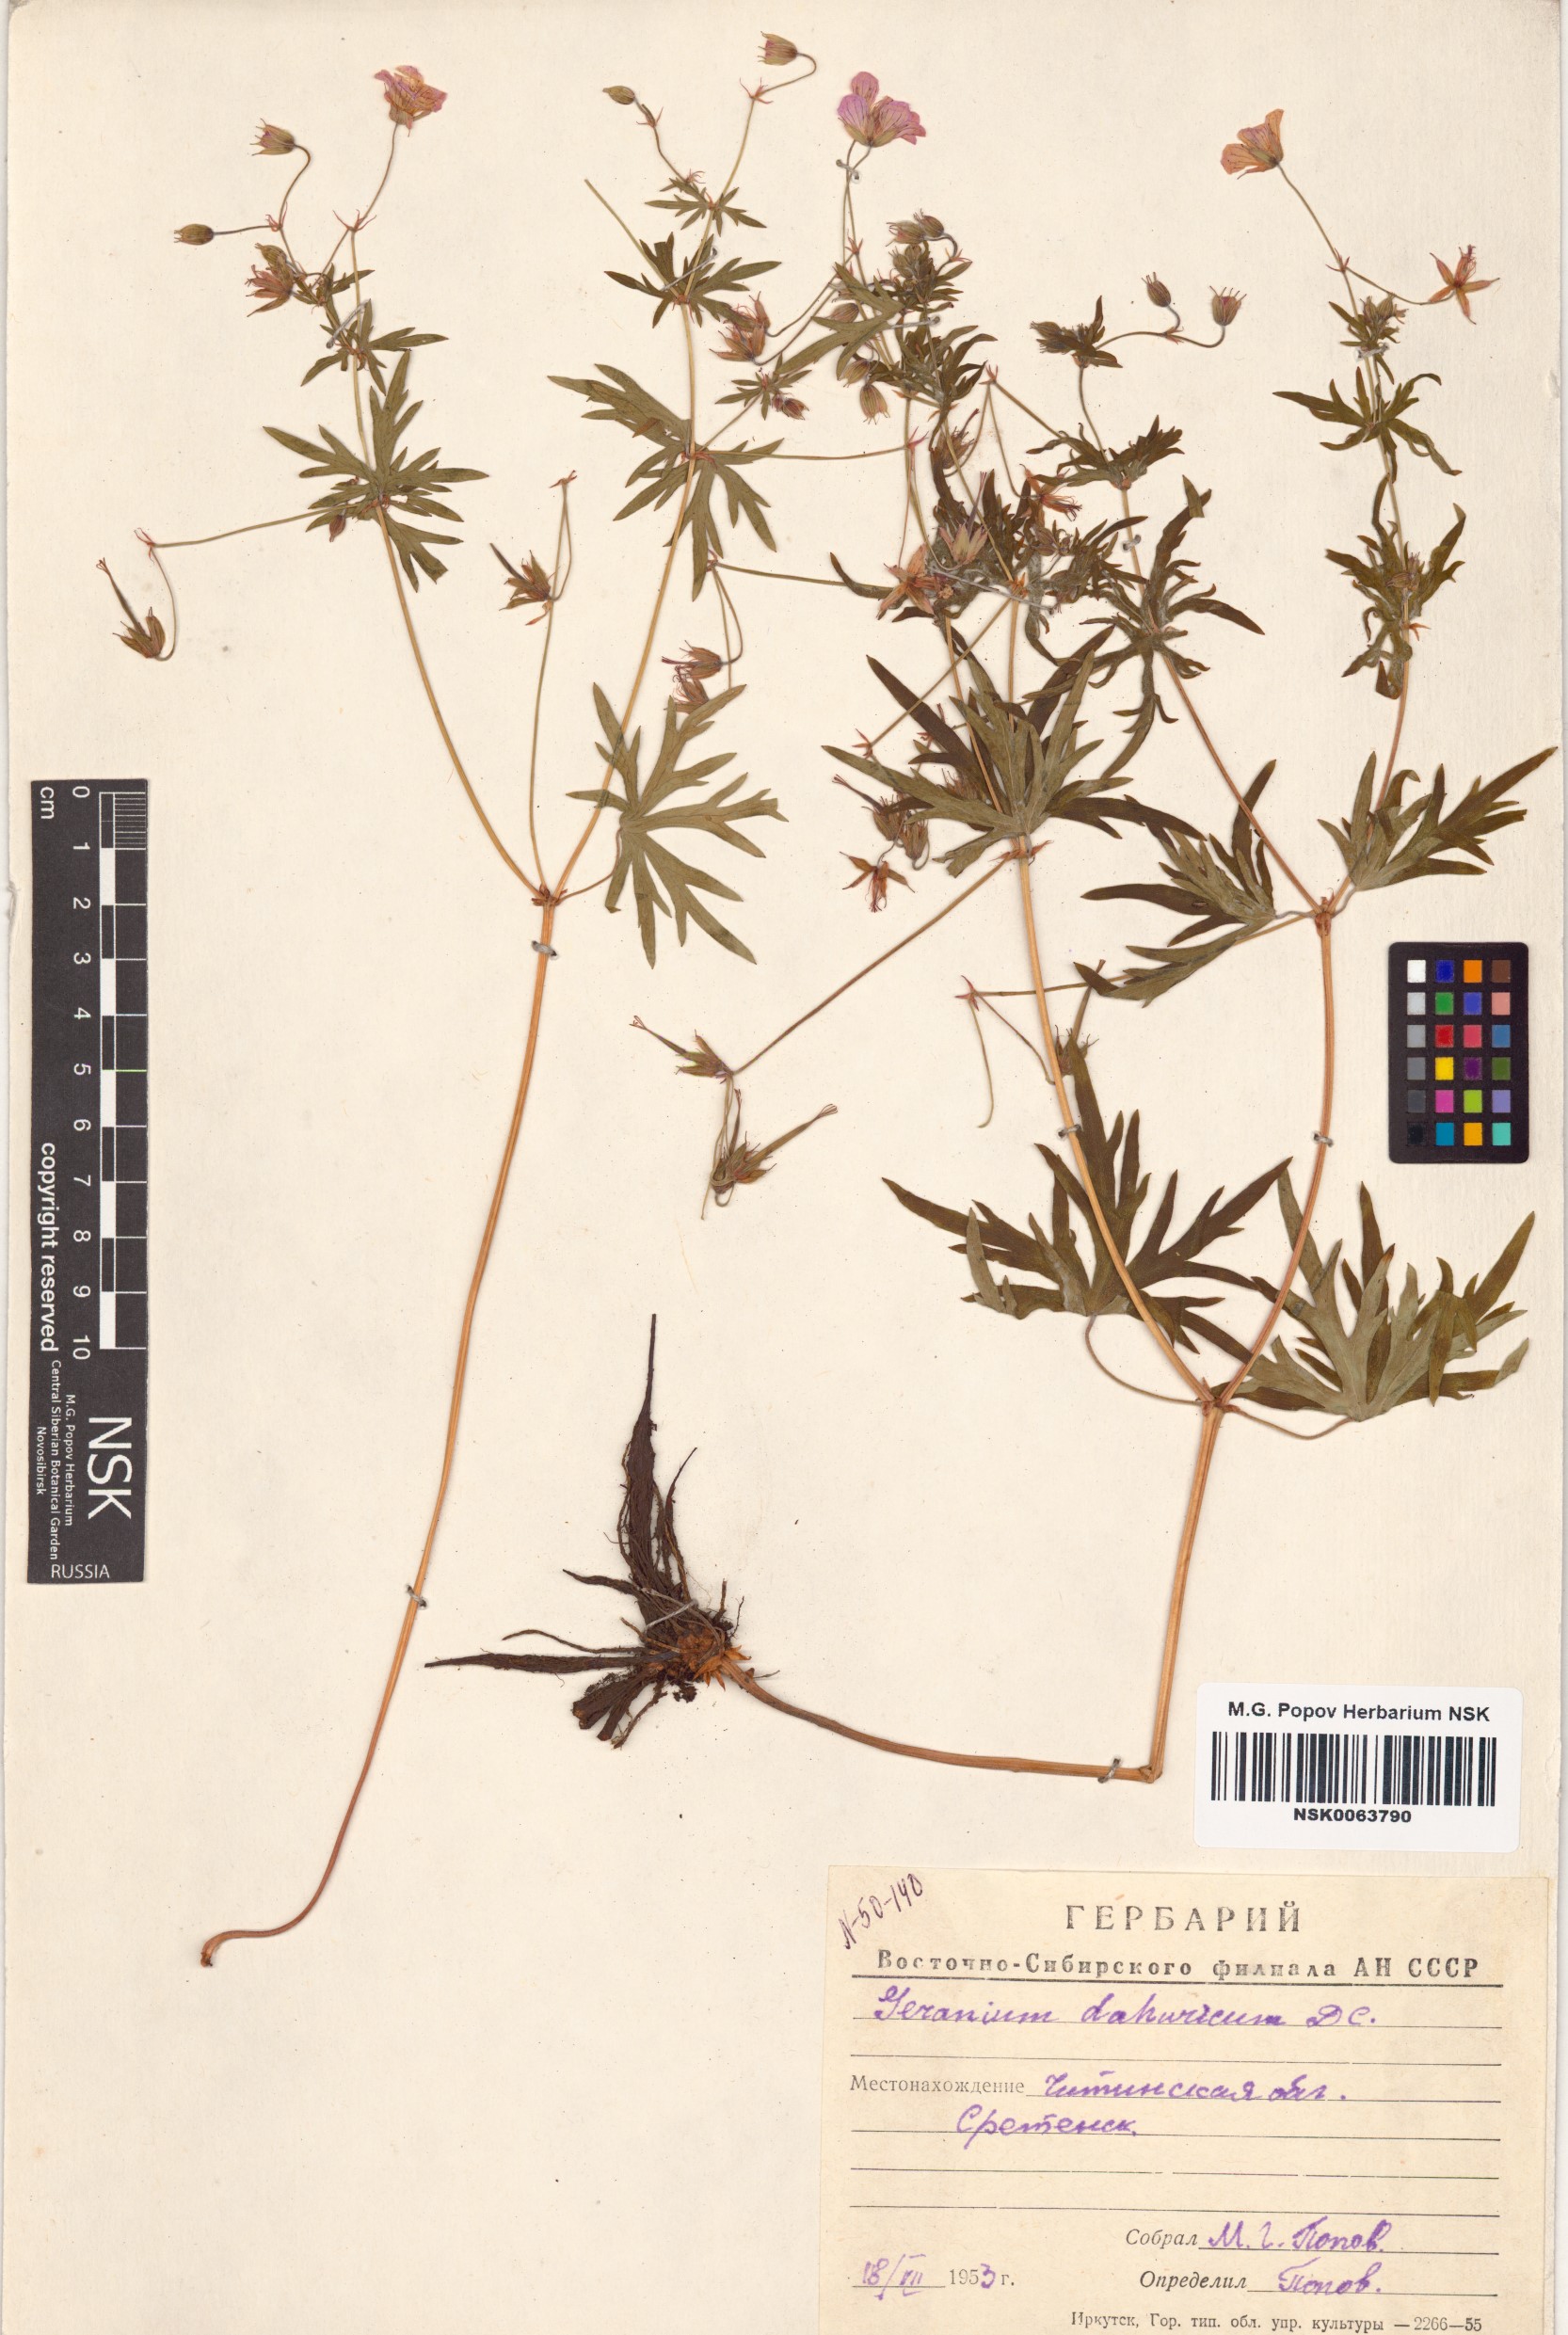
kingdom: Plantae
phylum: Tracheophyta
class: Magnoliopsida
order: Geraniales
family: Geraniaceae
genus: Geranium
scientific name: Geranium dahuricum
